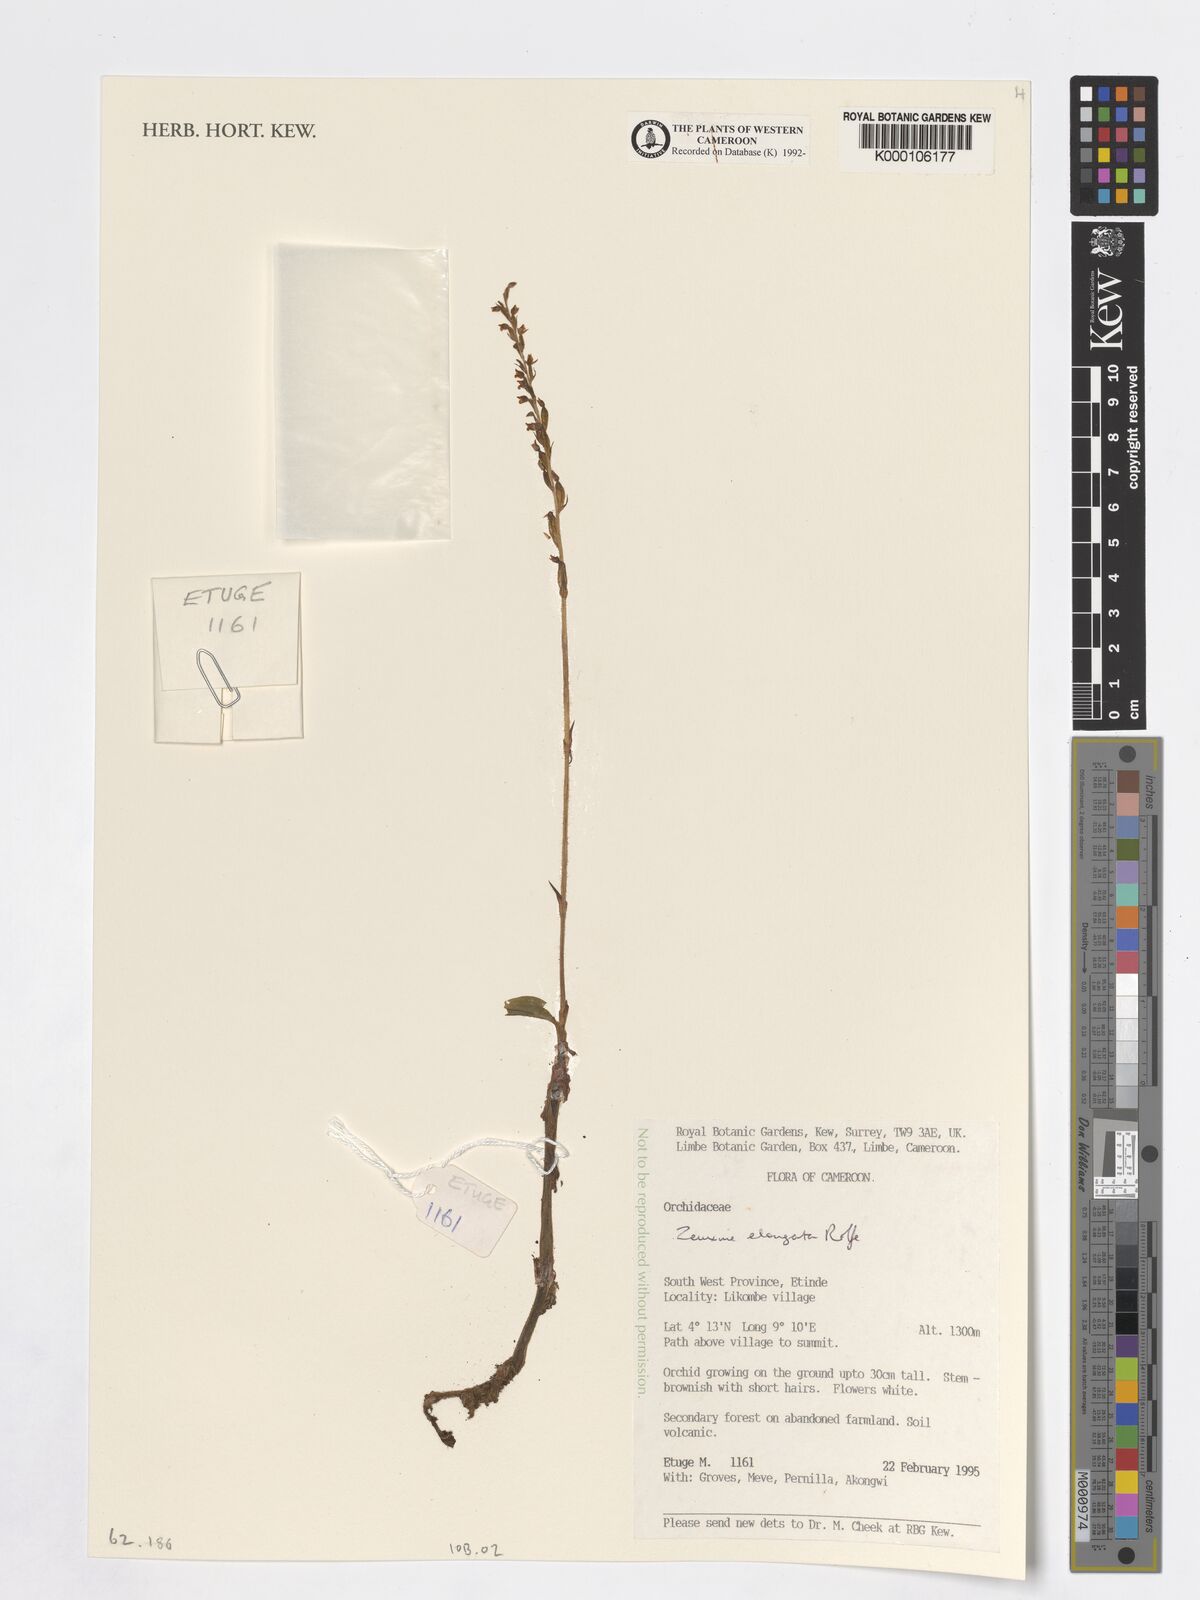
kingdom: Plantae
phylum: Tracheophyta
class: Liliopsida
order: Asparagales
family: Orchidaceae
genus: Zeuxine
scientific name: Zeuxine elongata
